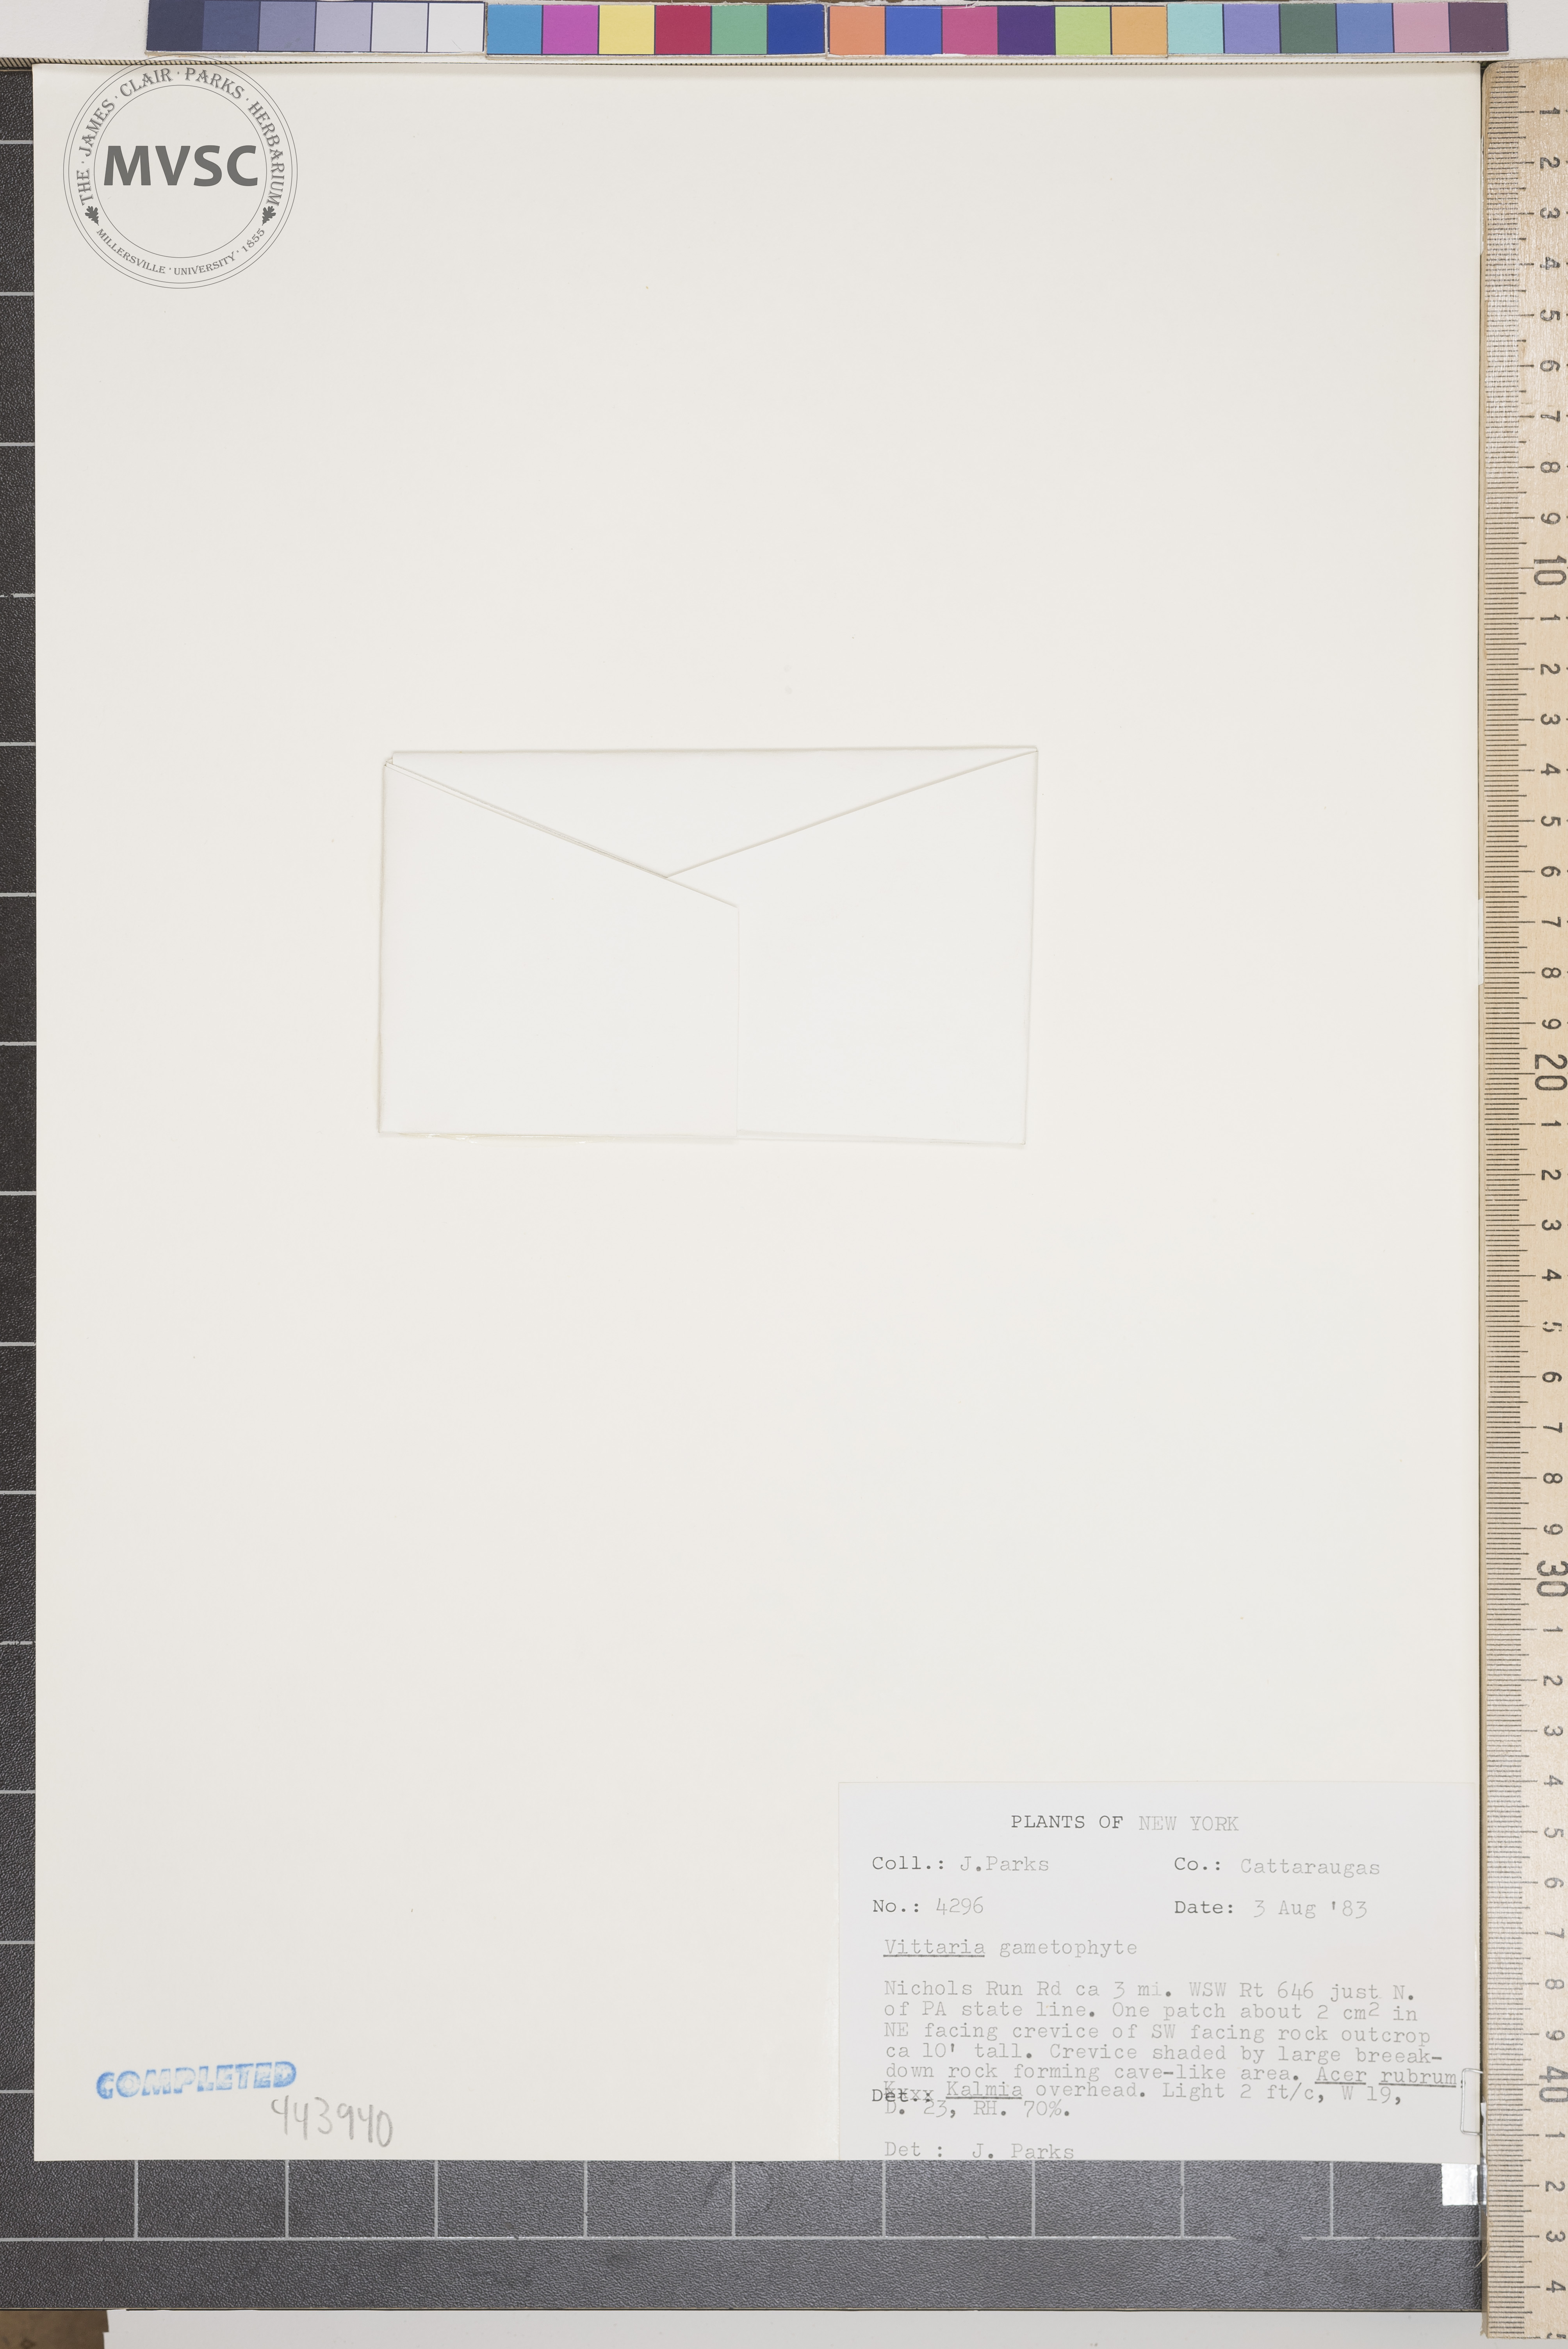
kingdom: Plantae
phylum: Tracheophyta
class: Polypodiopsida
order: Polypodiales
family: Pteridaceae
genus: Vittaria
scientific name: Vittaria appalachiana
